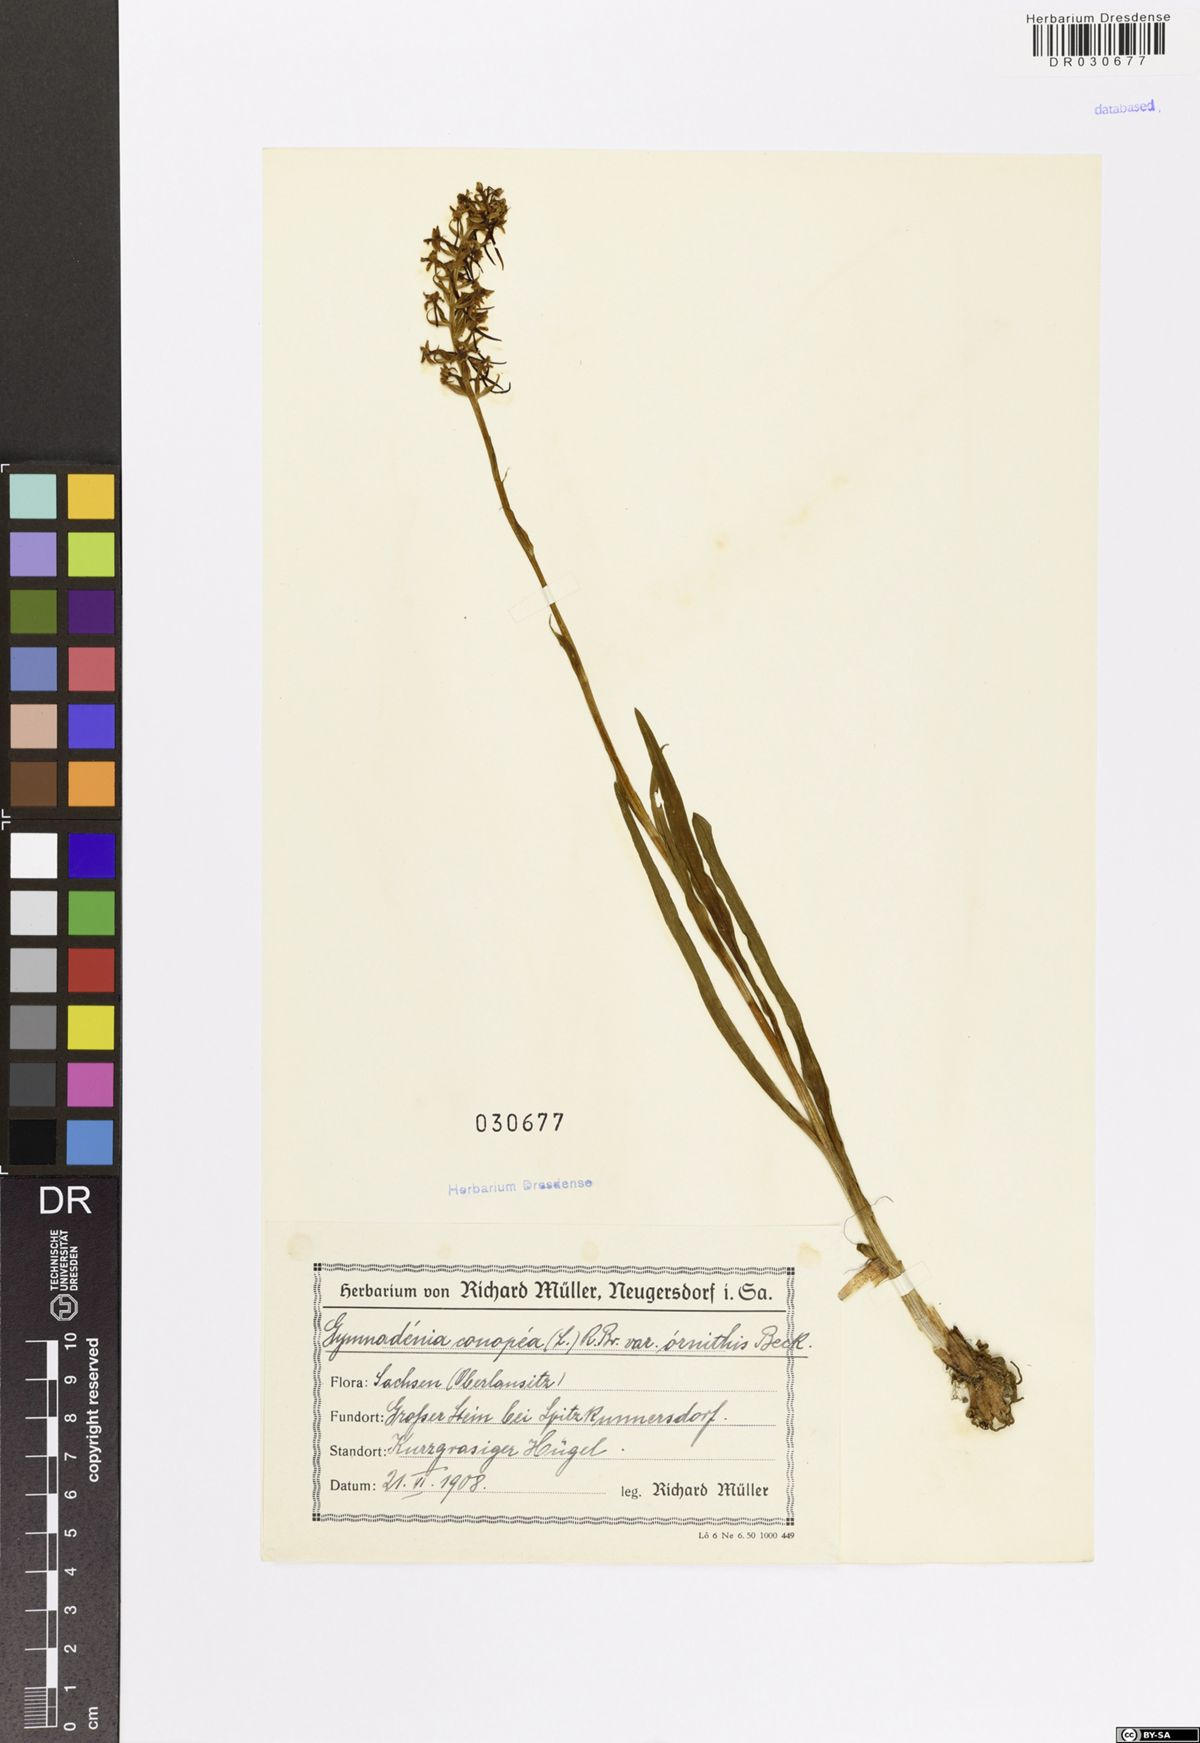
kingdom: Plantae
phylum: Tracheophyta
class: Liliopsida
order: Asparagales
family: Orchidaceae
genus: Gymnadenia
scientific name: Gymnadenia conopsea
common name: Fragrant orchid
